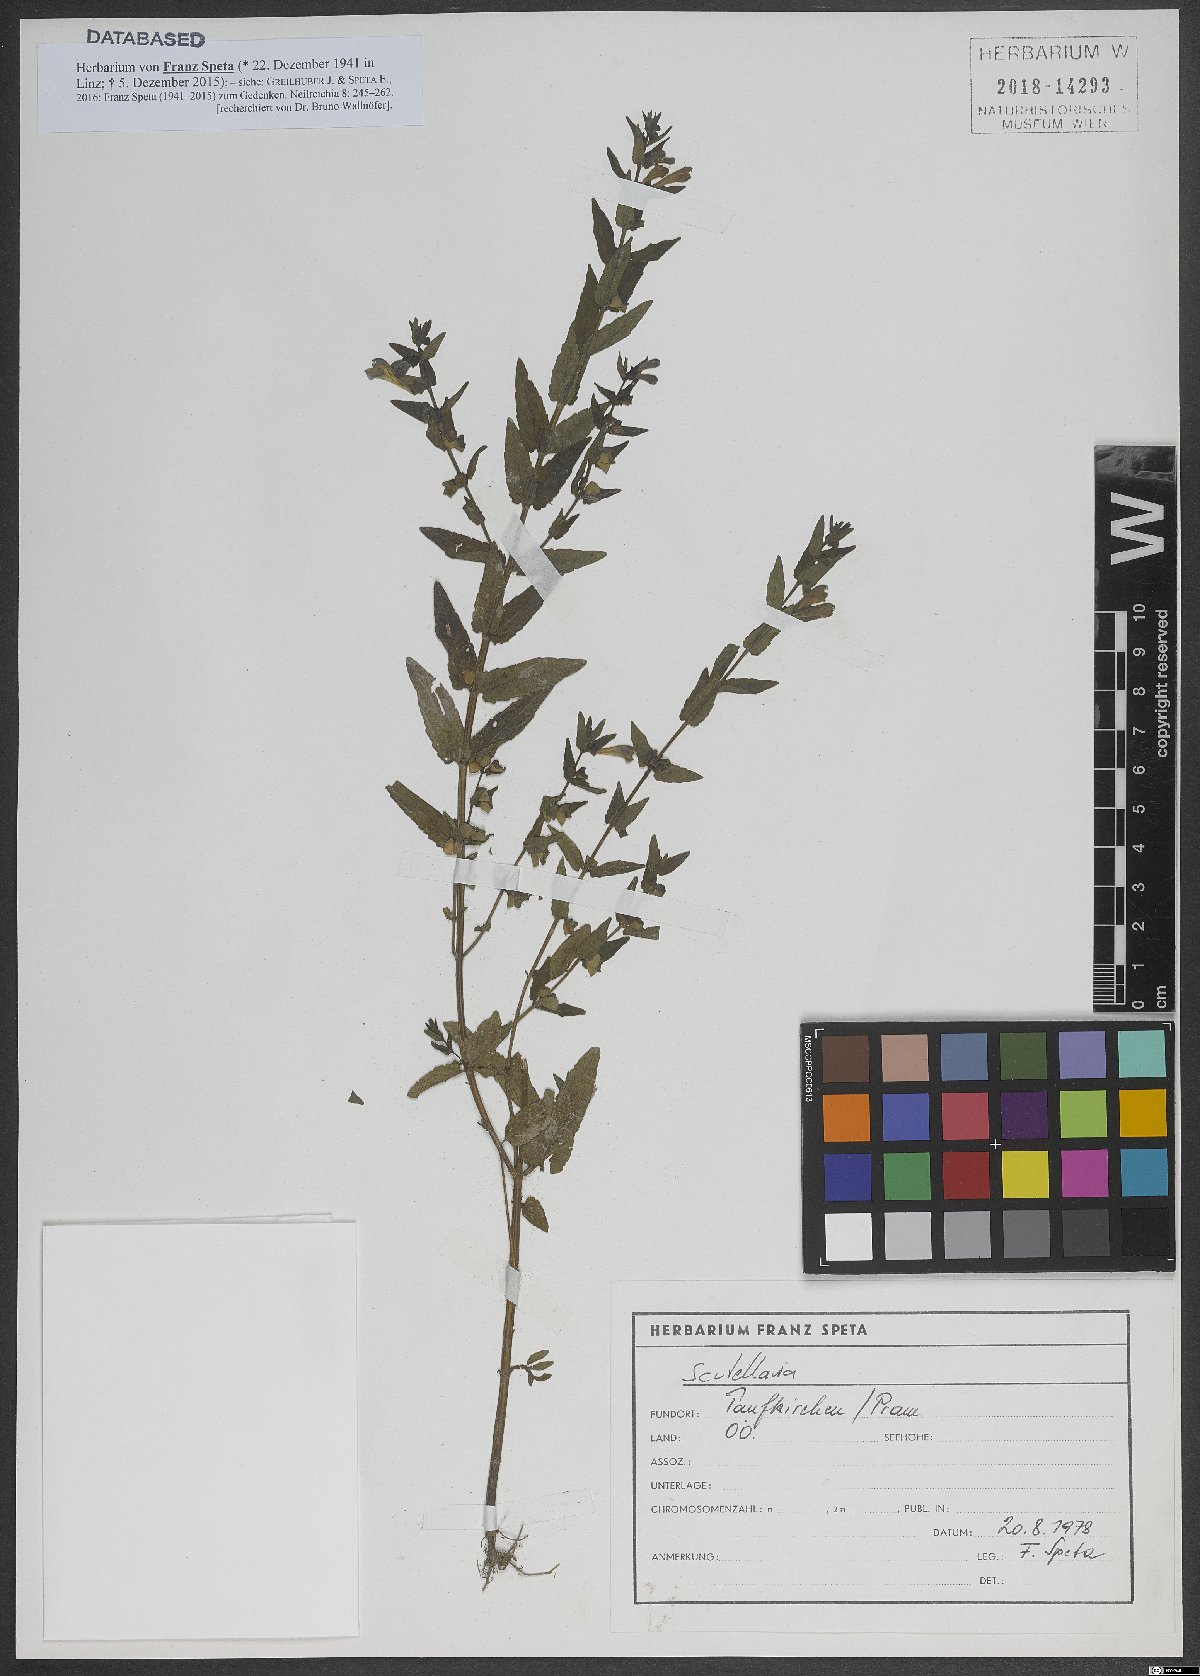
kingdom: Plantae
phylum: Tracheophyta
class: Magnoliopsida
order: Lamiales
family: Lamiaceae
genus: Scutellaria
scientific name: Scutellaria
